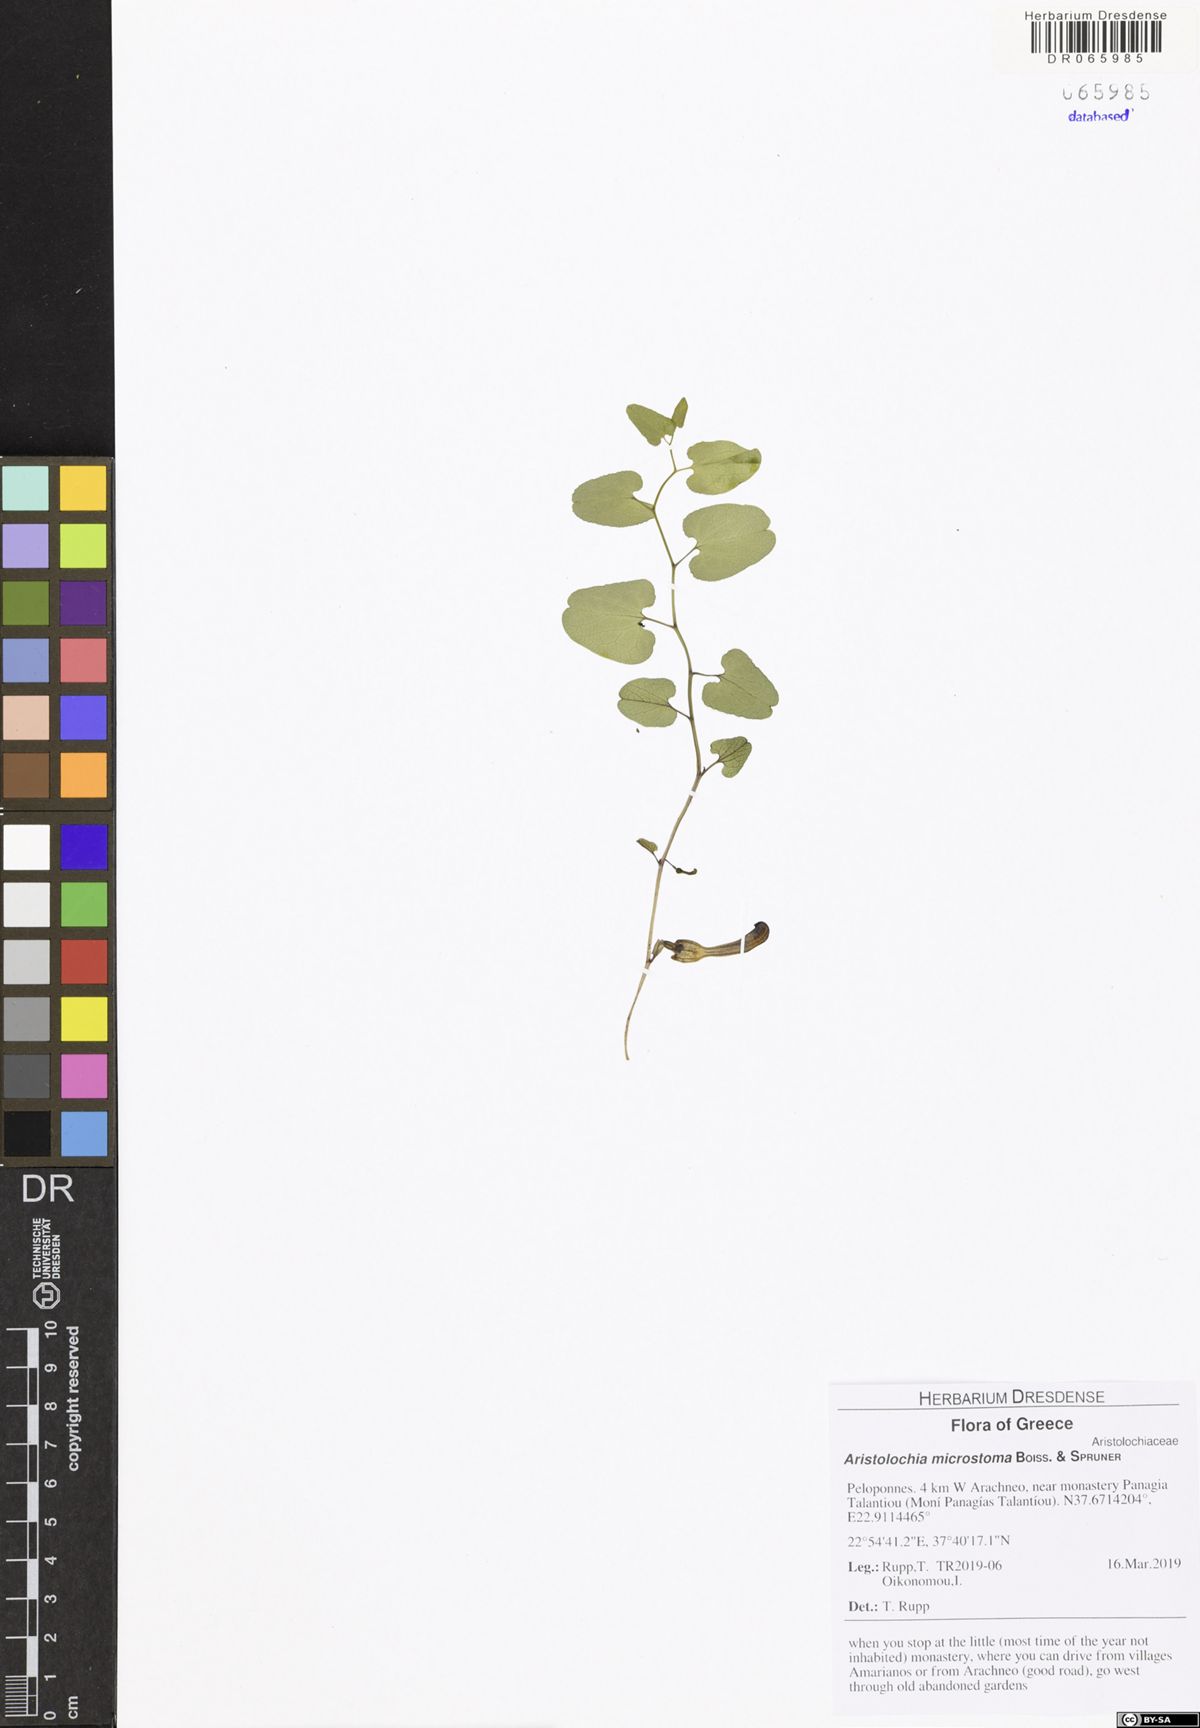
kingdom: Plantae
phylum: Tracheophyta
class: Magnoliopsida
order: Piperales
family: Aristolochiaceae
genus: Aristolochia
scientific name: Aristolochia microstoma
